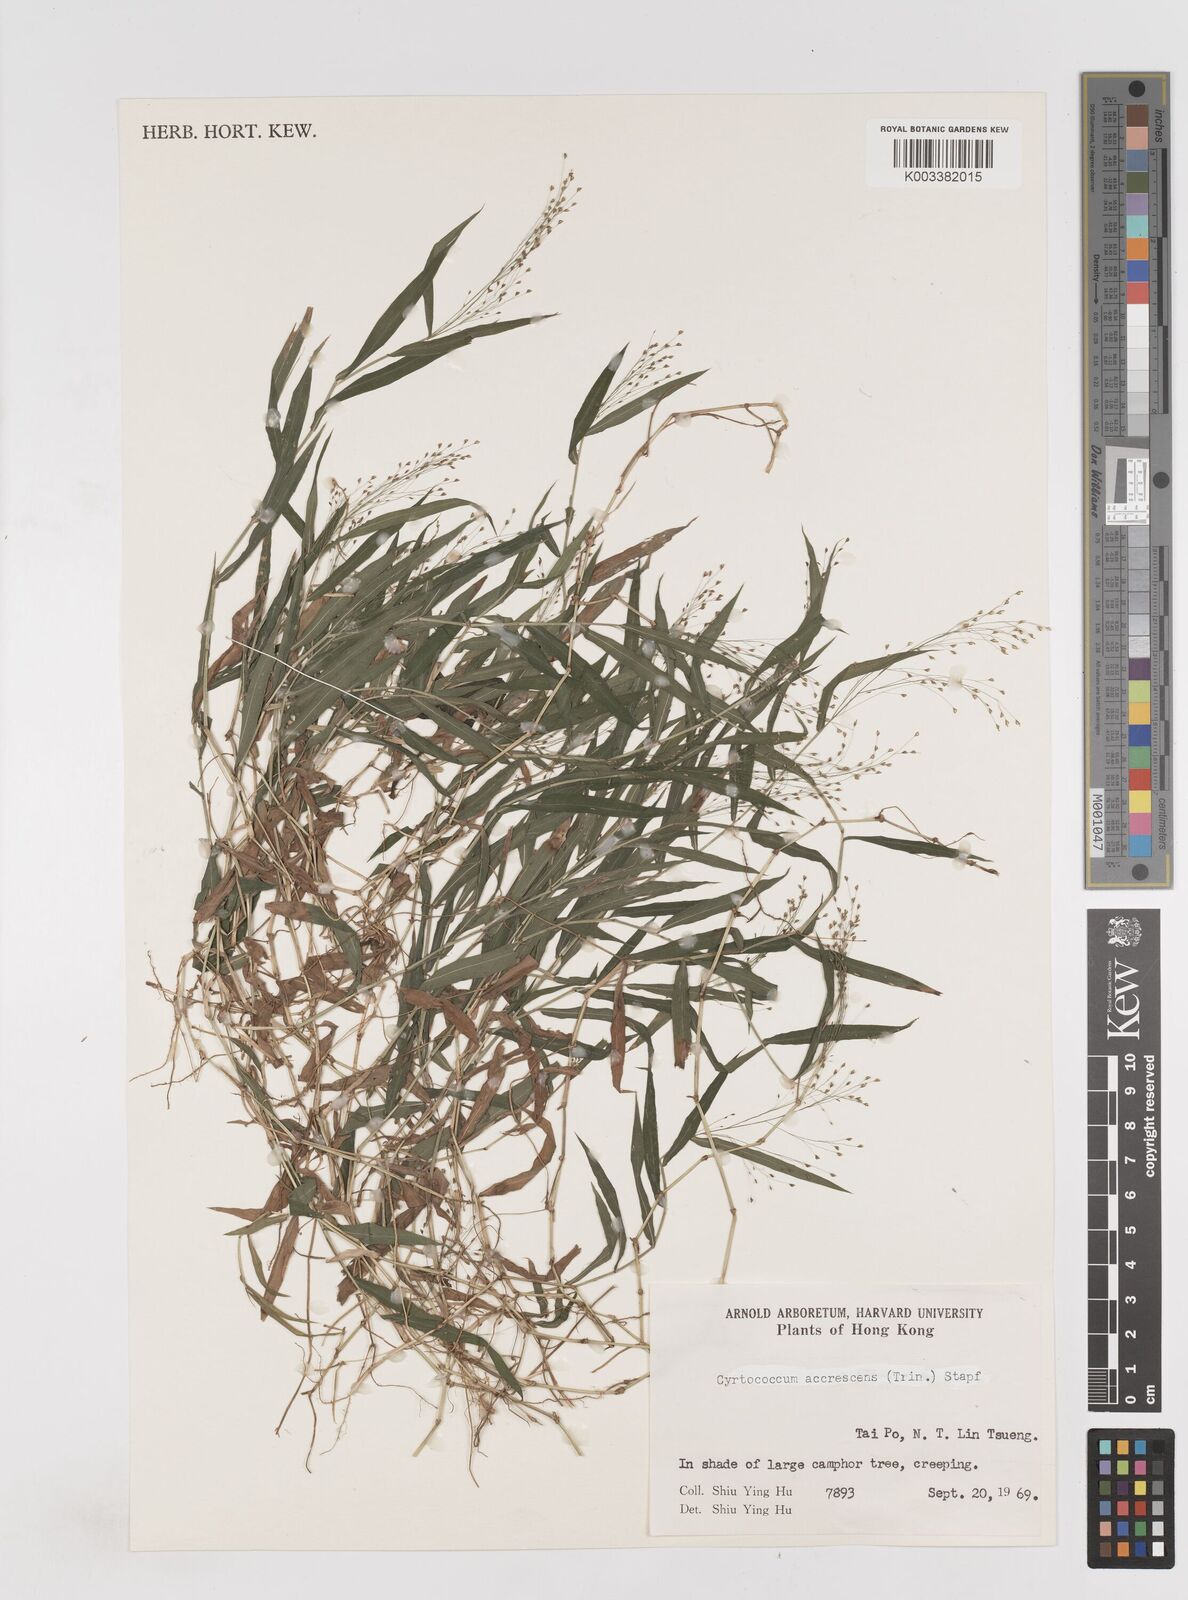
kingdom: Plantae
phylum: Tracheophyta
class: Liliopsida
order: Poales
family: Poaceae
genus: Cyrtococcum
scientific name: Cyrtococcum patens
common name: Broad-leaved bowgrass
